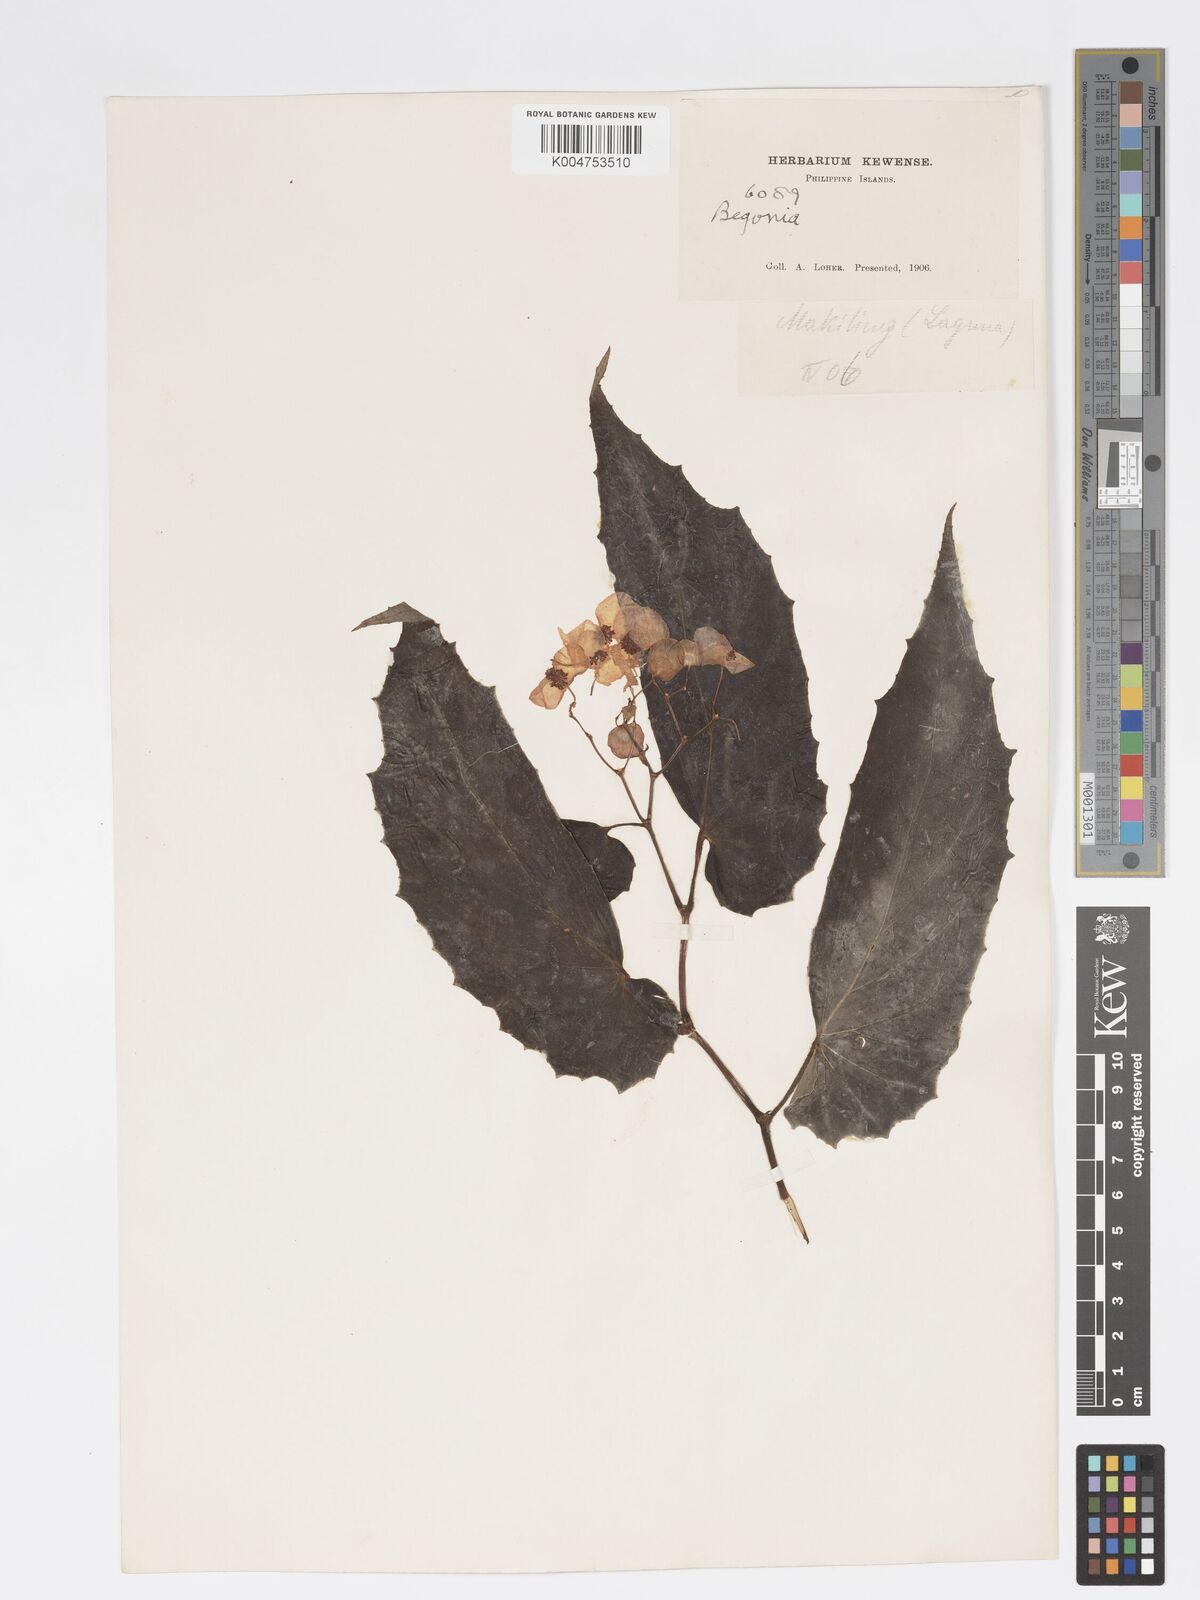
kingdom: Plantae
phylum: Tracheophyta
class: Magnoliopsida
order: Cucurbitales
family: Begoniaceae
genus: Begonia
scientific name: Begonia
